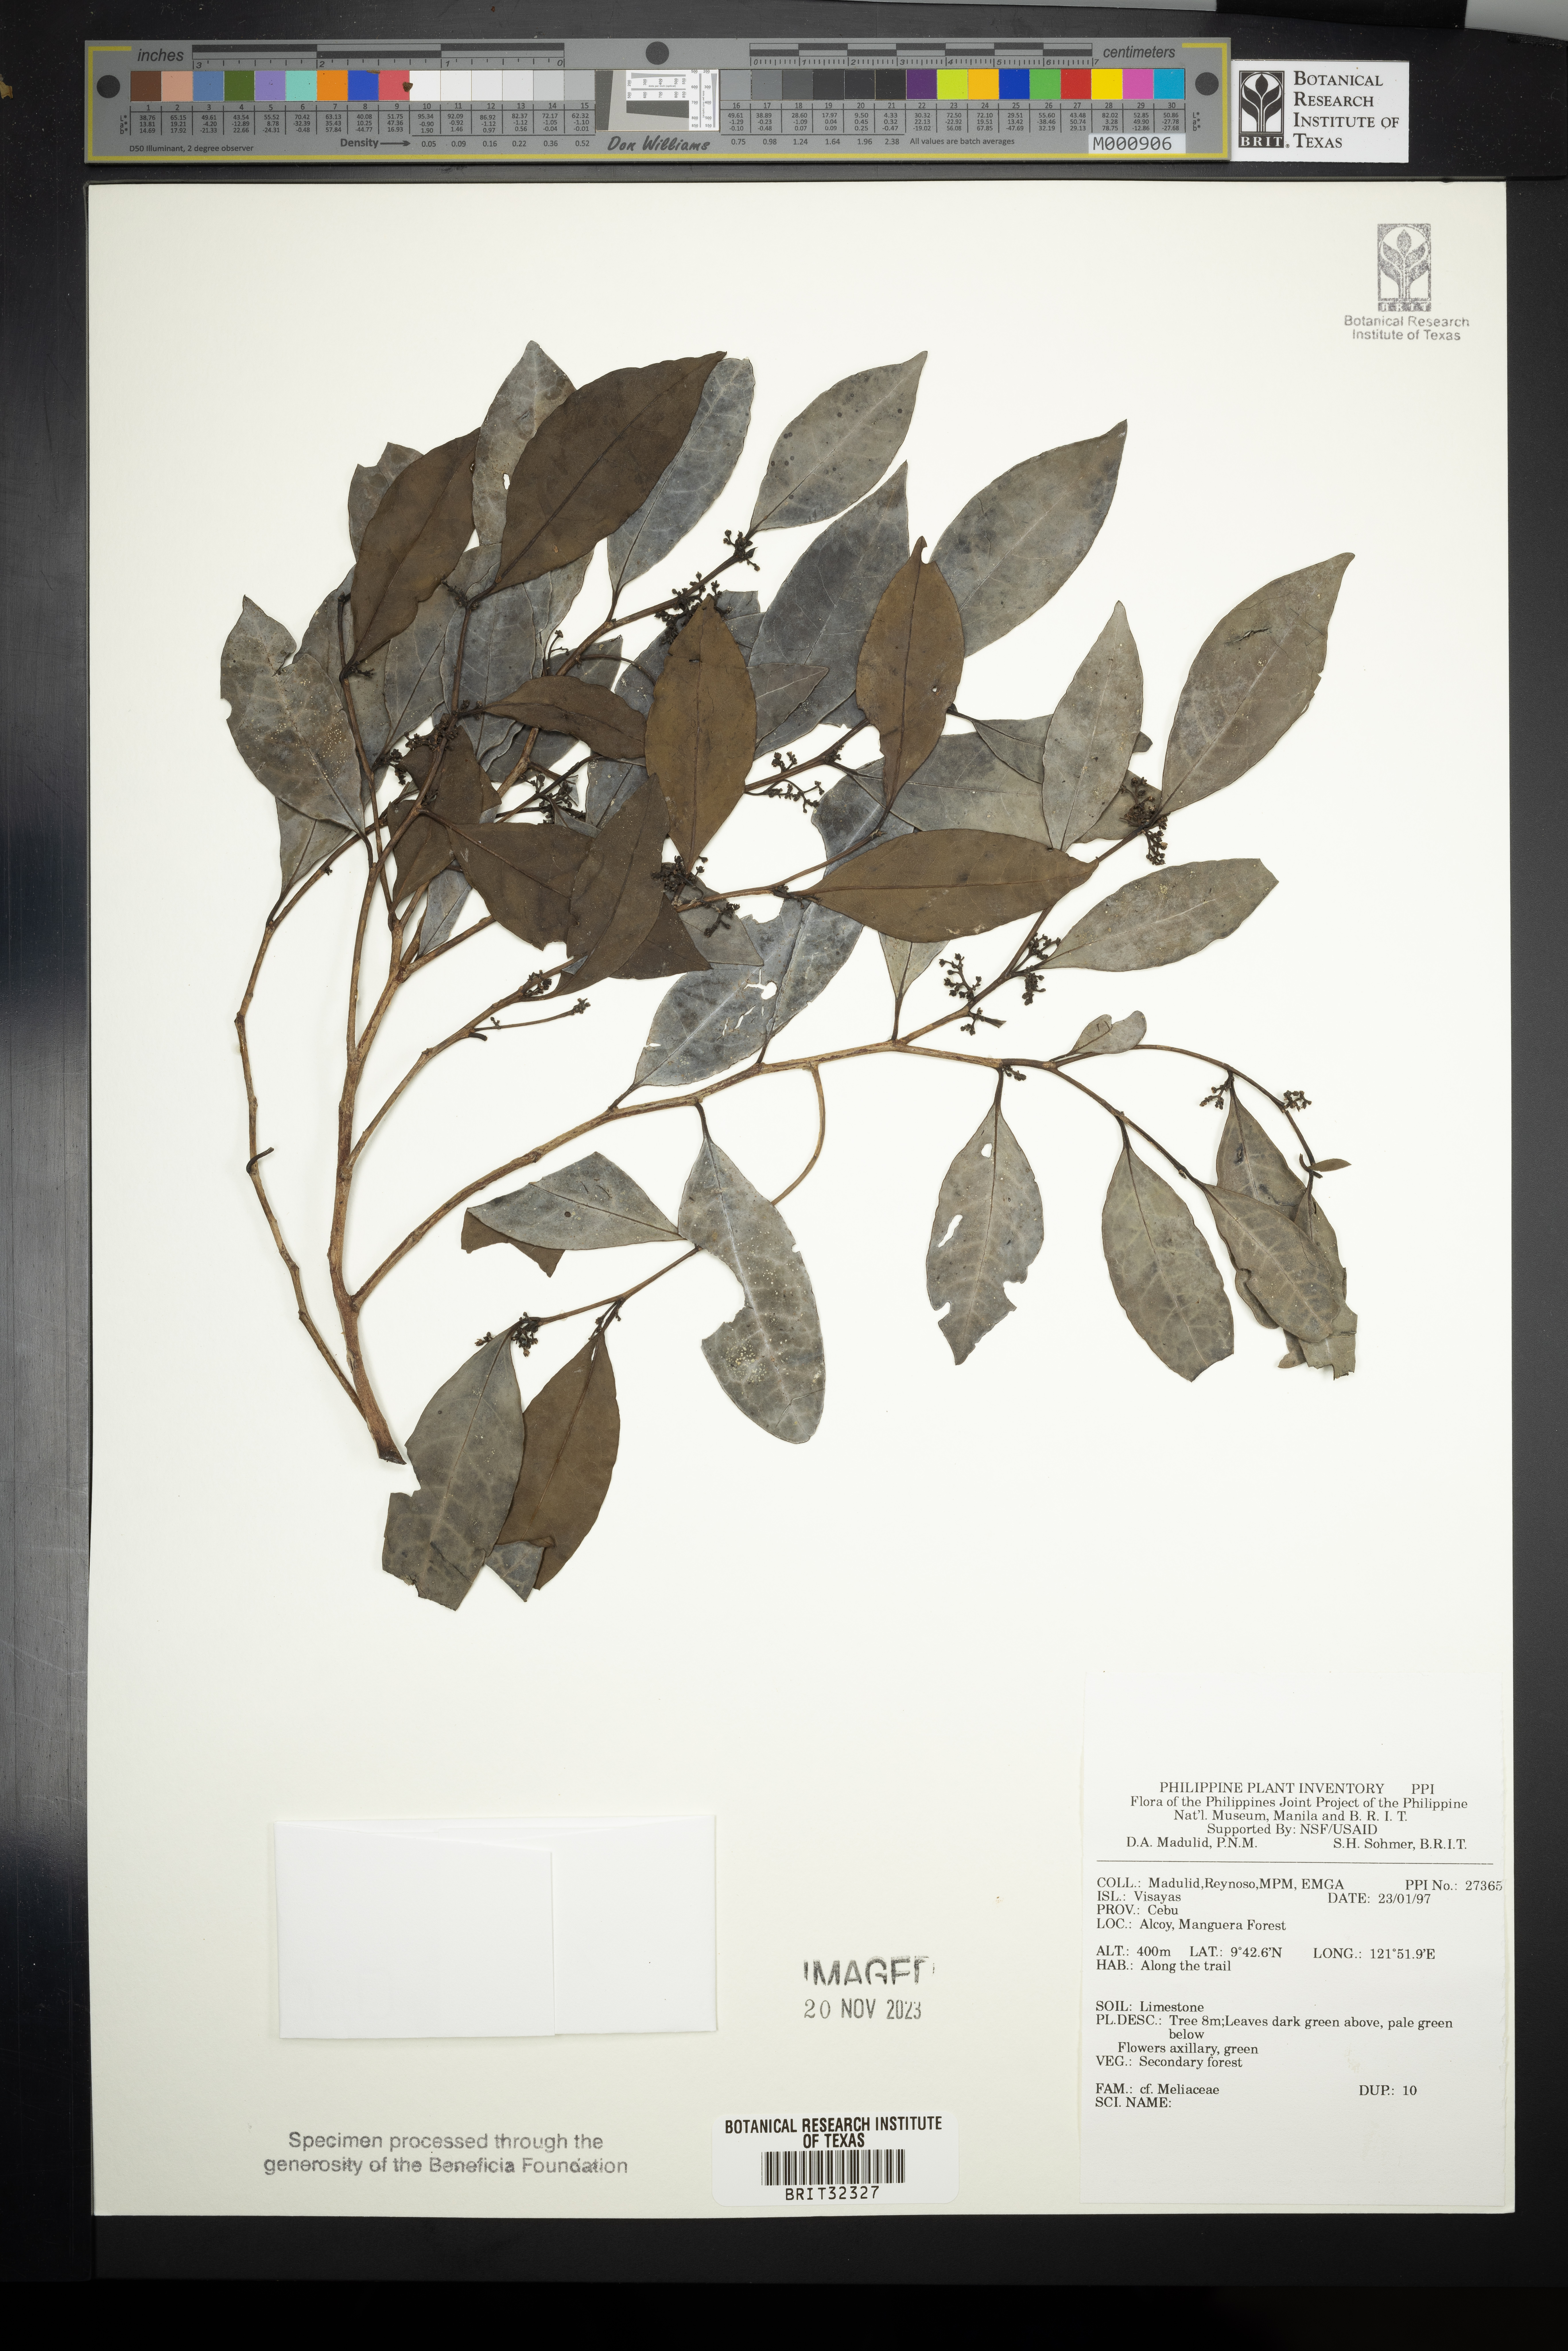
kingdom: Plantae
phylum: Tracheophyta
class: Magnoliopsida
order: Sapindales
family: Meliaceae
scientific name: Meliaceae
